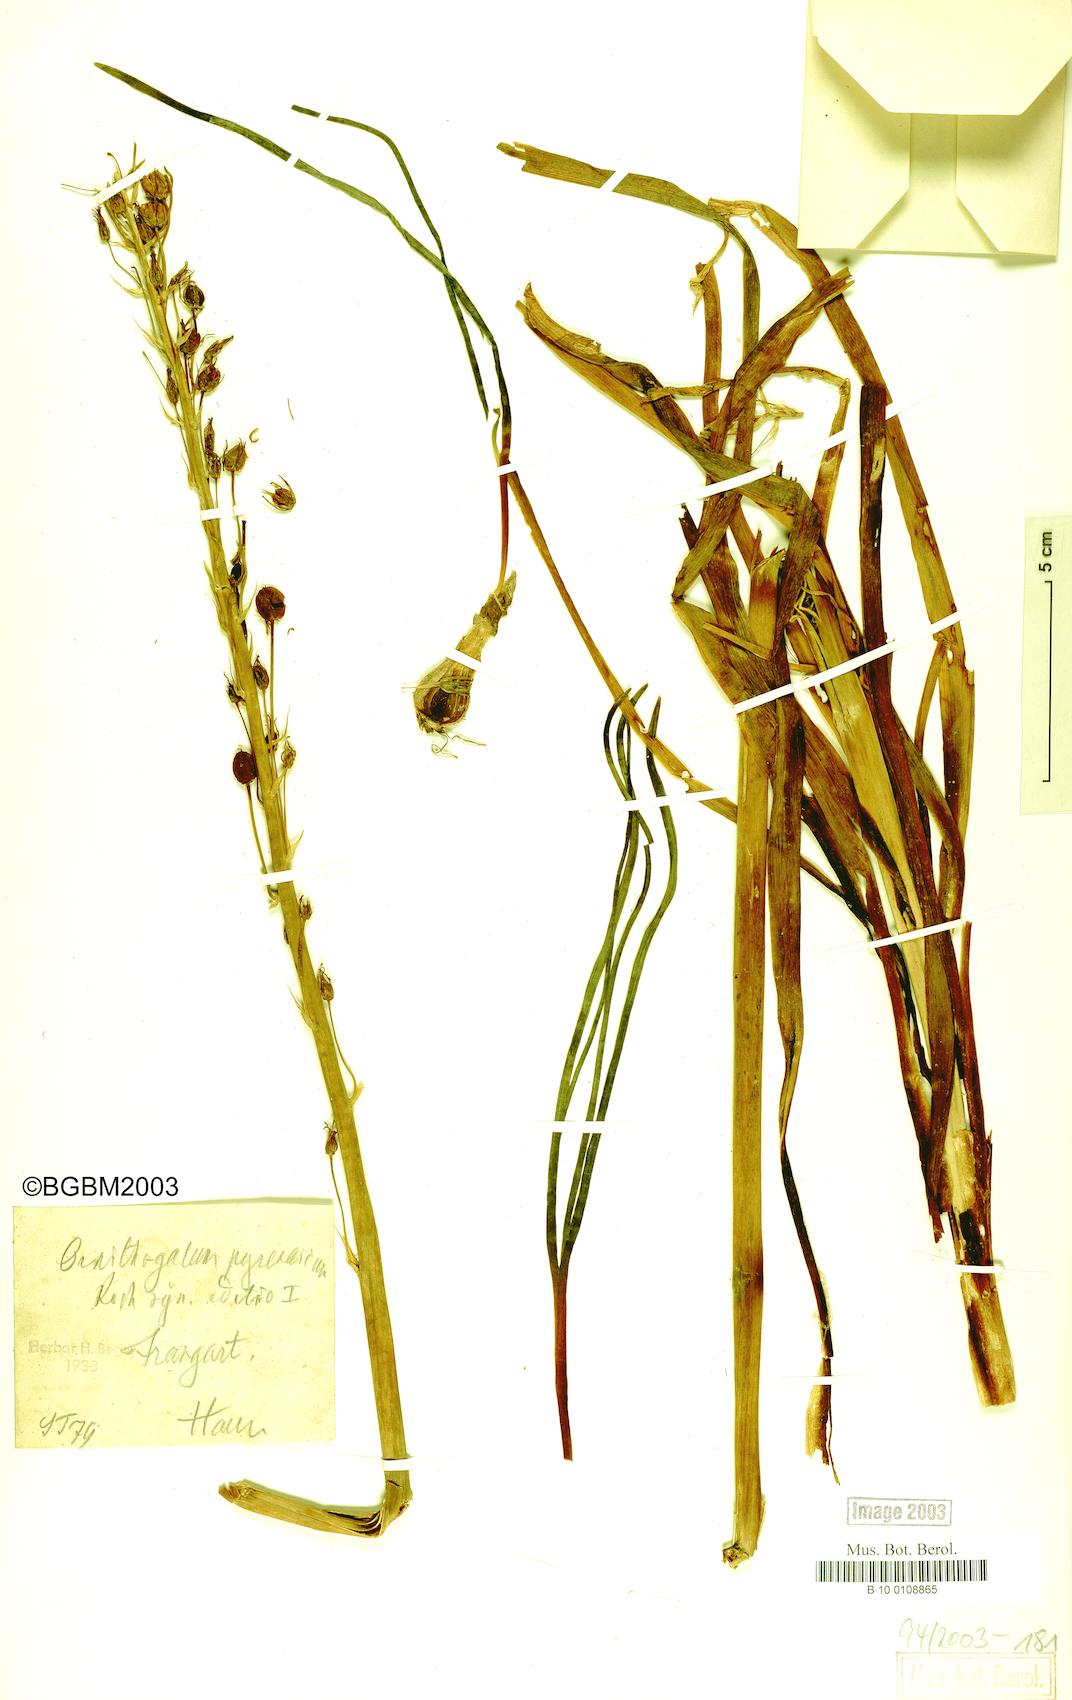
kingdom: Plantae
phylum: Tracheophyta
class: Liliopsida
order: Asparagales
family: Asparagaceae
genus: Ornithogalum
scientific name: Ornithogalum pyrenaicum
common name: Spiked star-of-bethlehem
